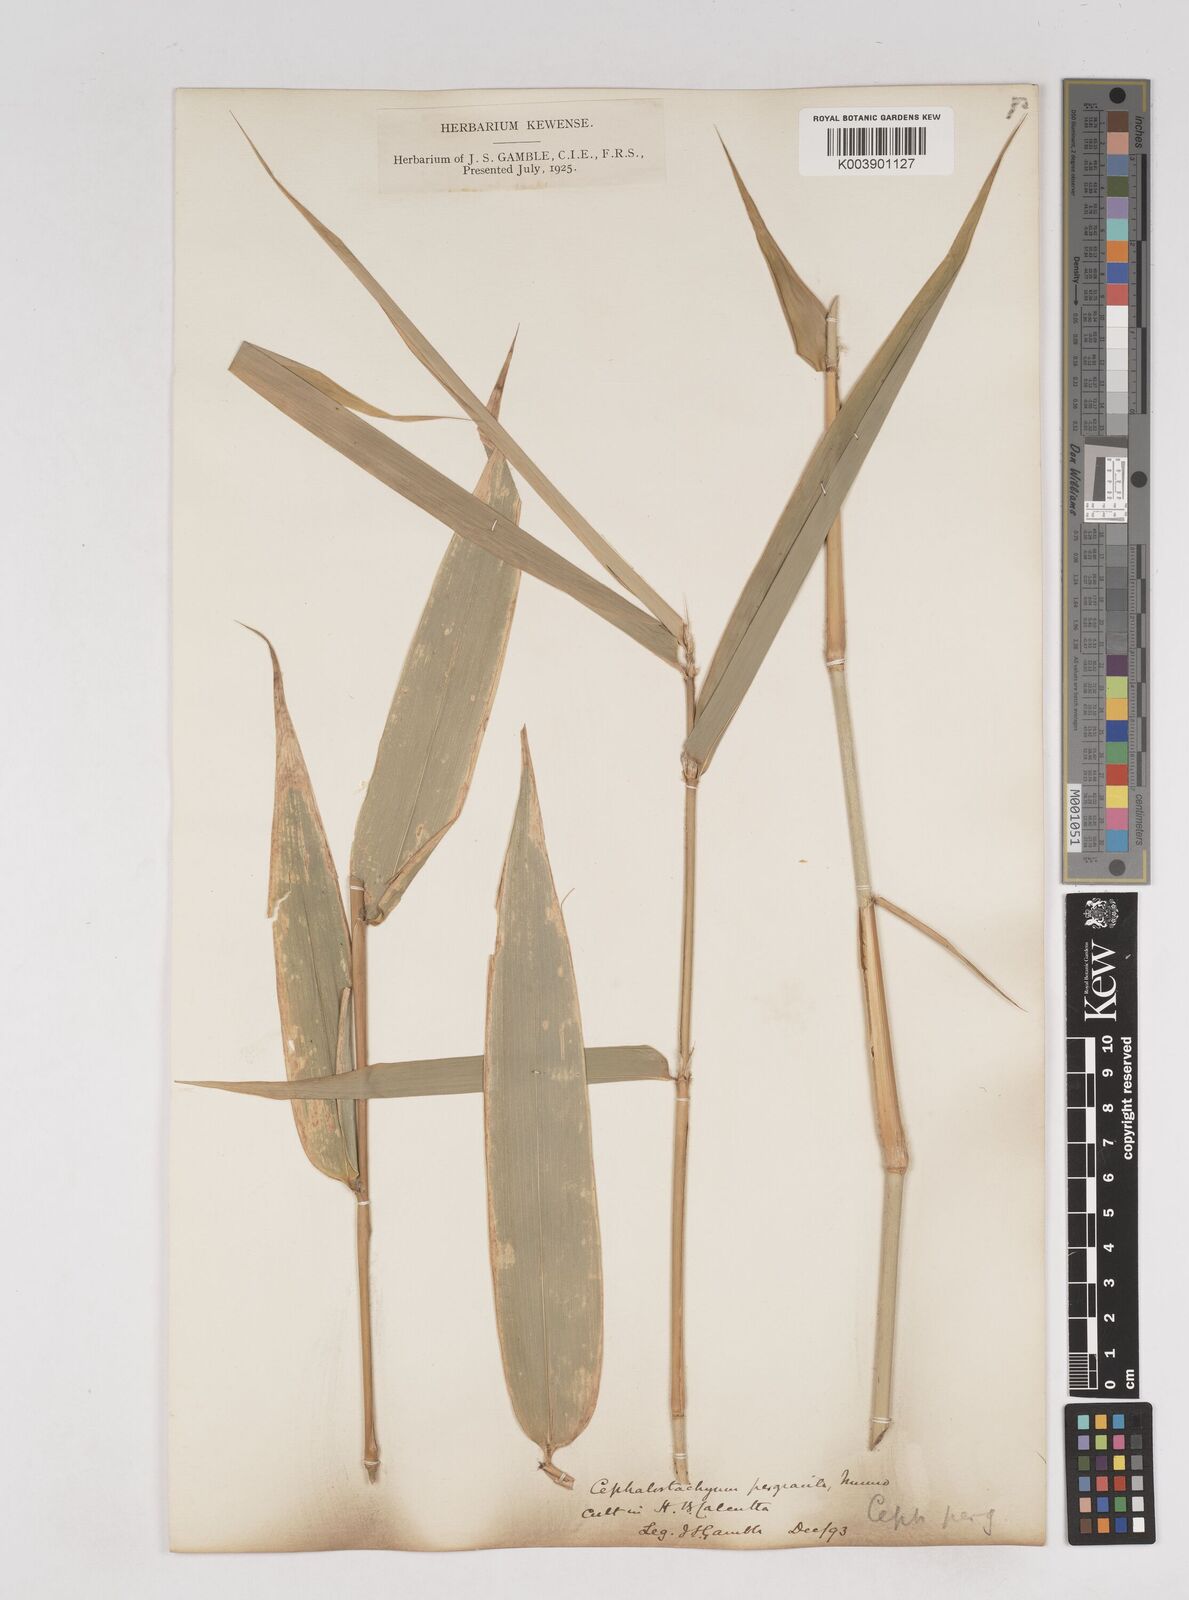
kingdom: Plantae
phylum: Tracheophyta
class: Liliopsida
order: Poales
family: Poaceae
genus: Schizostachyum
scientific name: Schizostachyum pergracile
